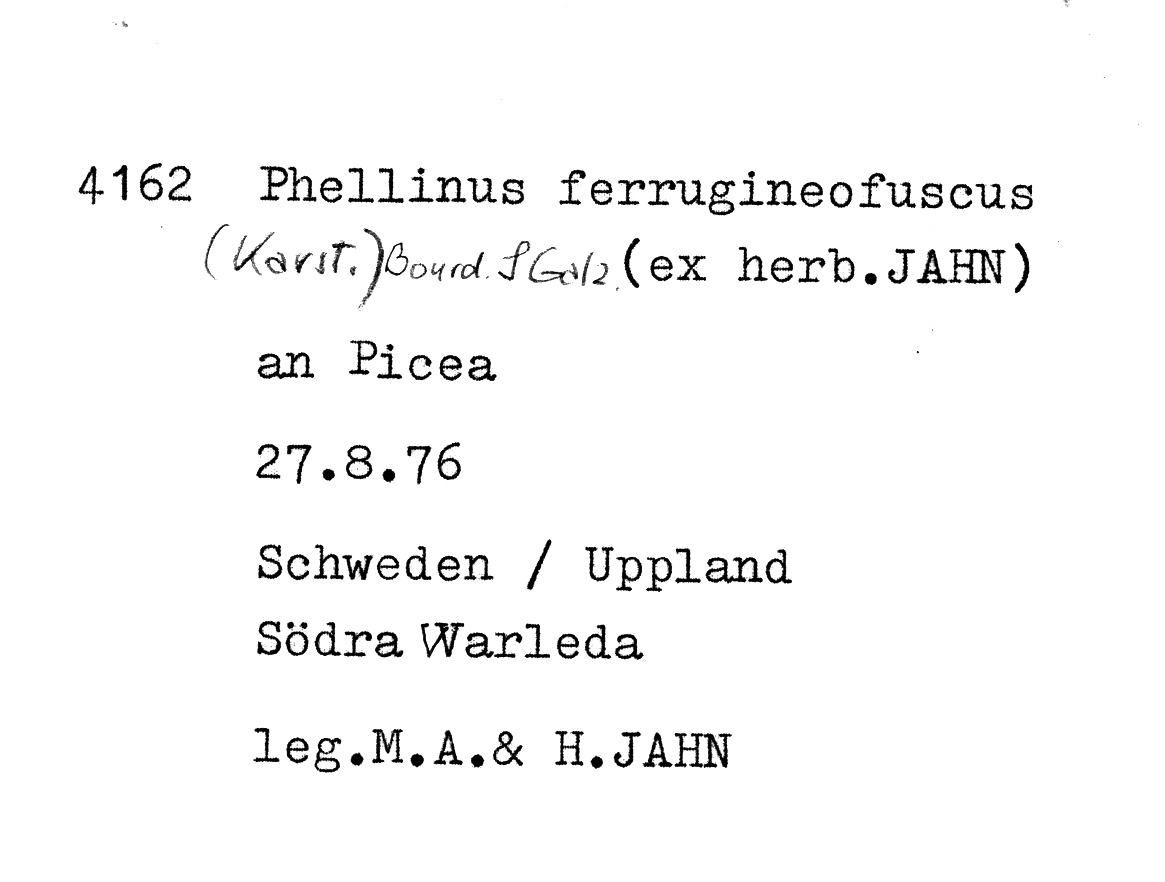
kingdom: Fungi
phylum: Basidiomycota
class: Agaricomycetes
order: Hymenochaetales
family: Hymenochaetaceae
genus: Phellinidium
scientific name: Phellinidium ferrugineofuscum
